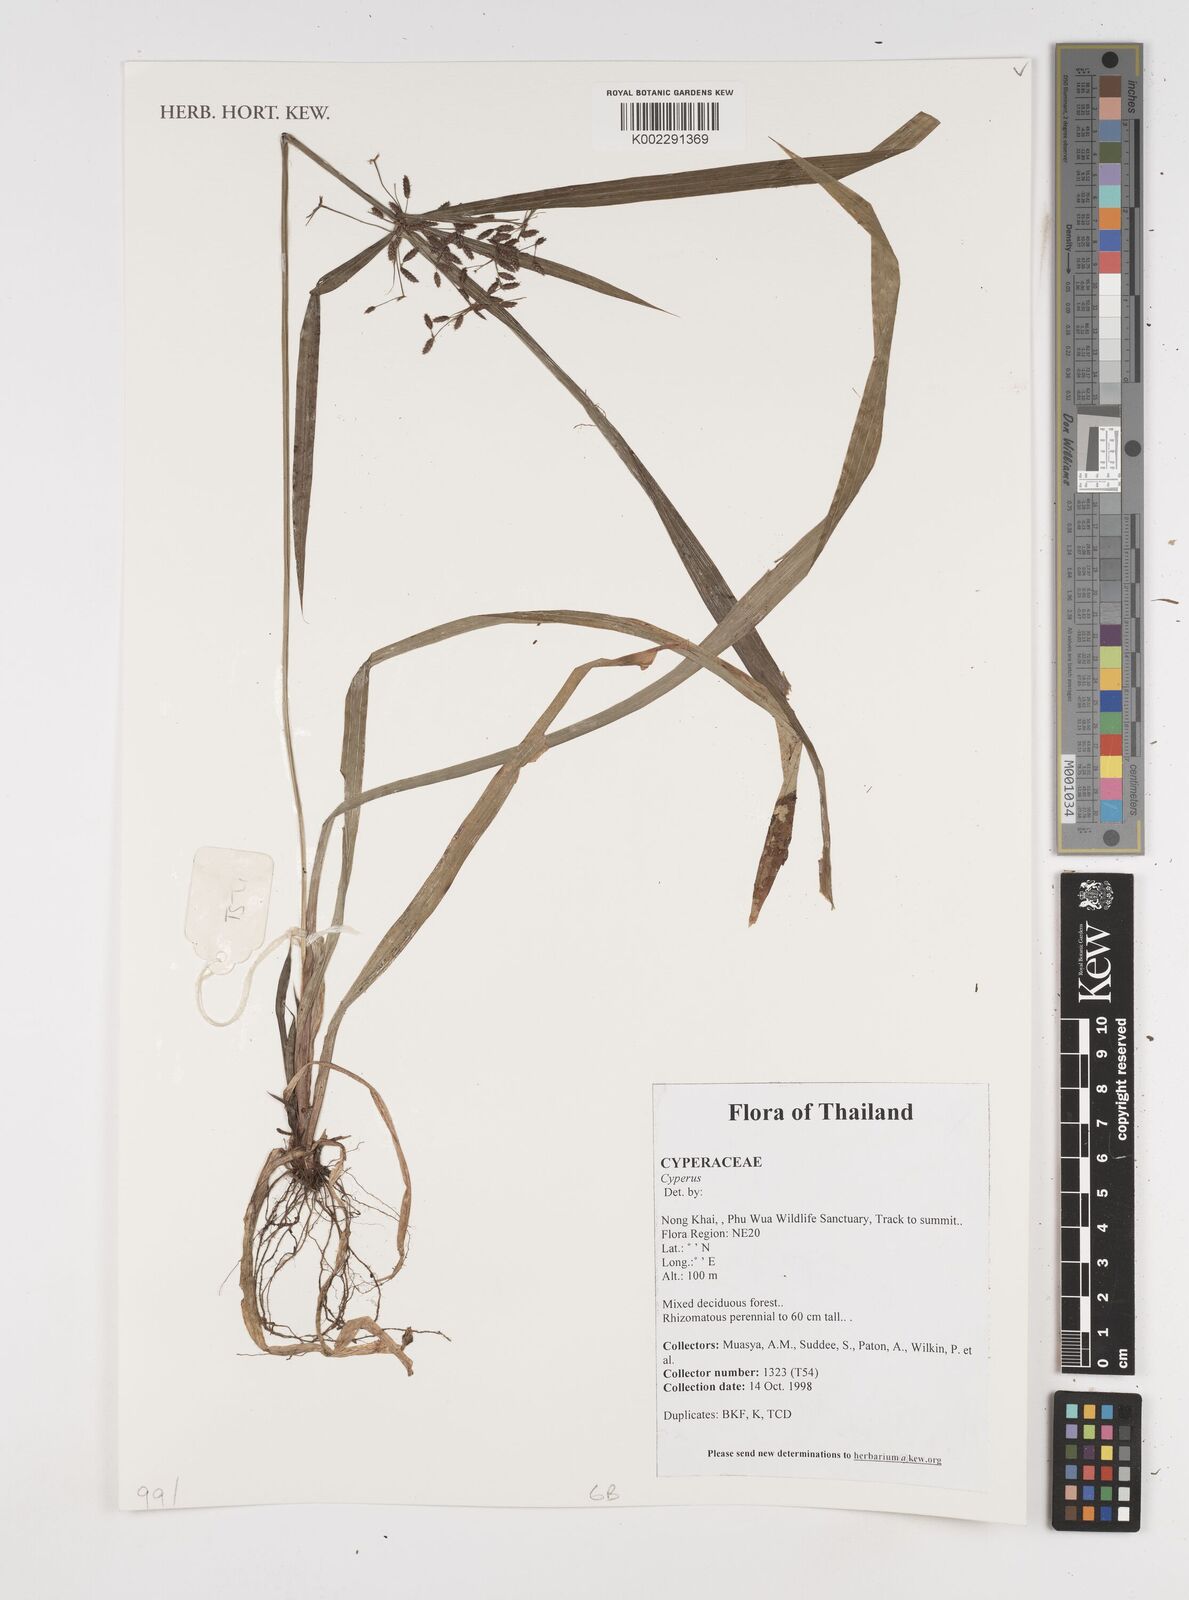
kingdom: Plantae
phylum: Tracheophyta
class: Liliopsida
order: Poales
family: Cyperaceae
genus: Cyperus
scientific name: Cyperus
